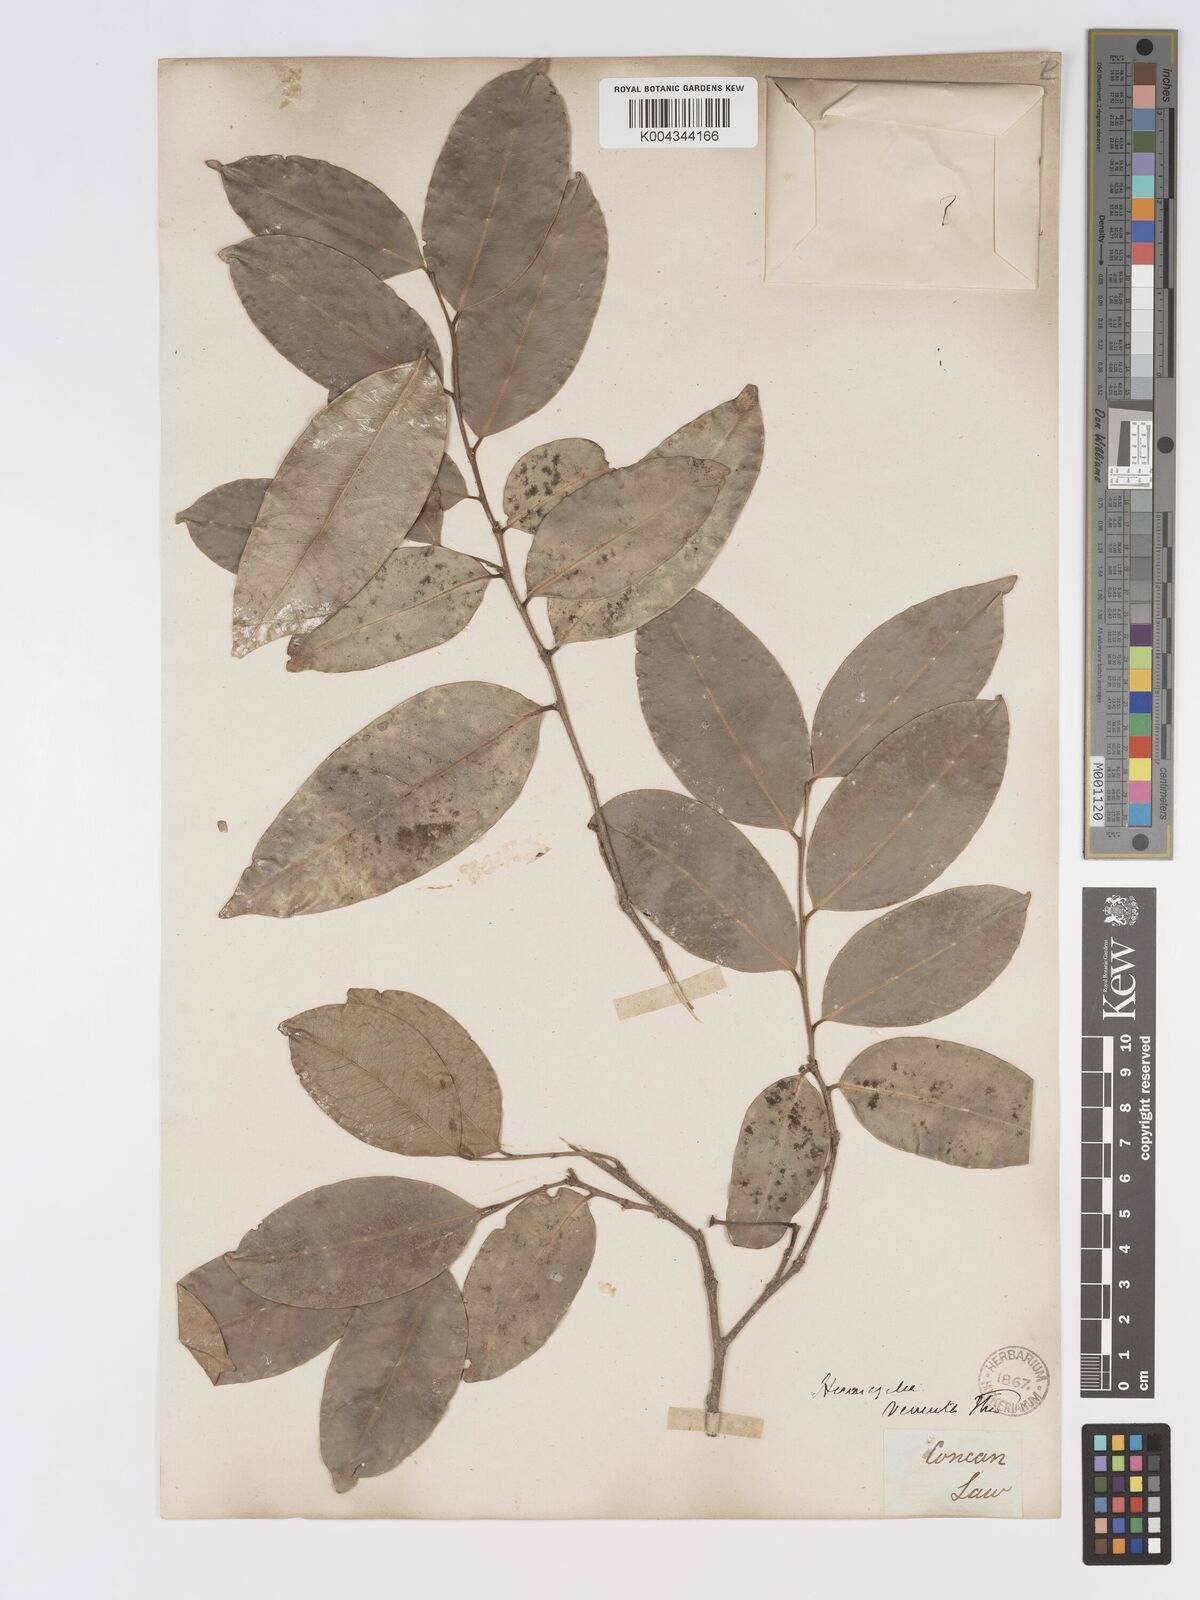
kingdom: Plantae
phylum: Tracheophyta
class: Magnoliopsida
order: Malpighiales
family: Putranjivaceae
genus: Drypetes
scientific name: Drypetes venusta
